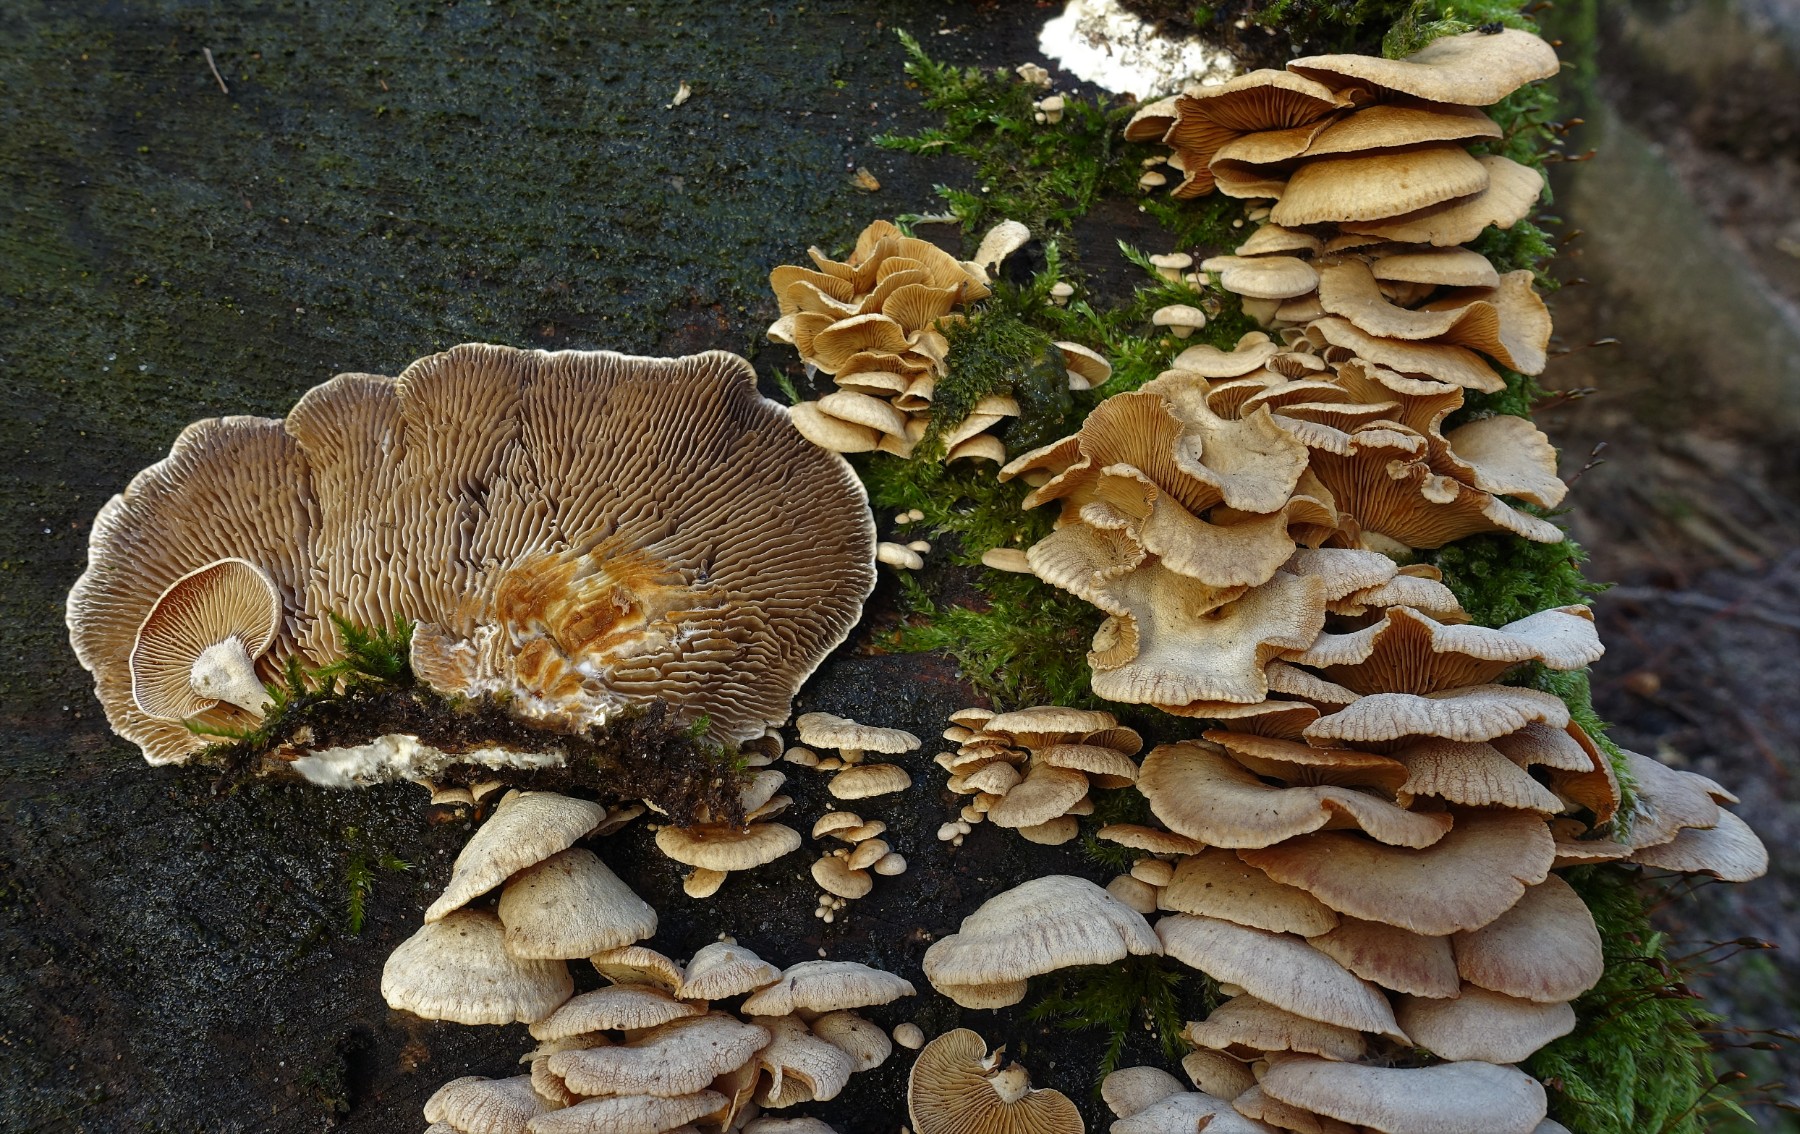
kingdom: Fungi
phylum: Basidiomycota
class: Agaricomycetes
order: Polyporales
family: Polyporaceae
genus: Lenzites
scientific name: Lenzites betulinus
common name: birke-læderporesvamp
